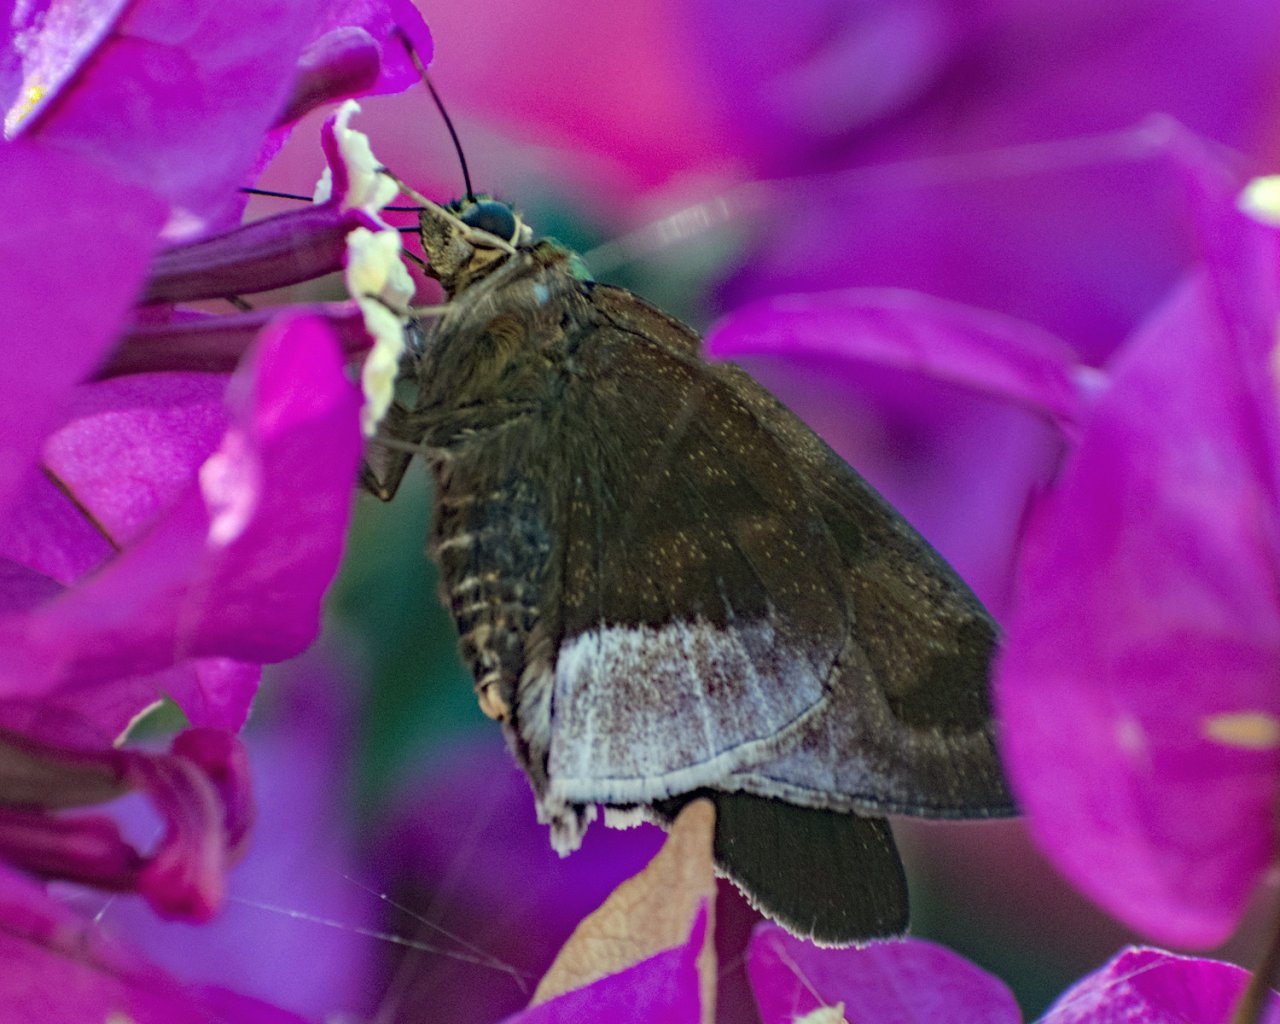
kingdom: Animalia
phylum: Arthropoda
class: Insecta
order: Lepidoptera
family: Hesperiidae
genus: Astraptes
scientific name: Astraptes alardus
